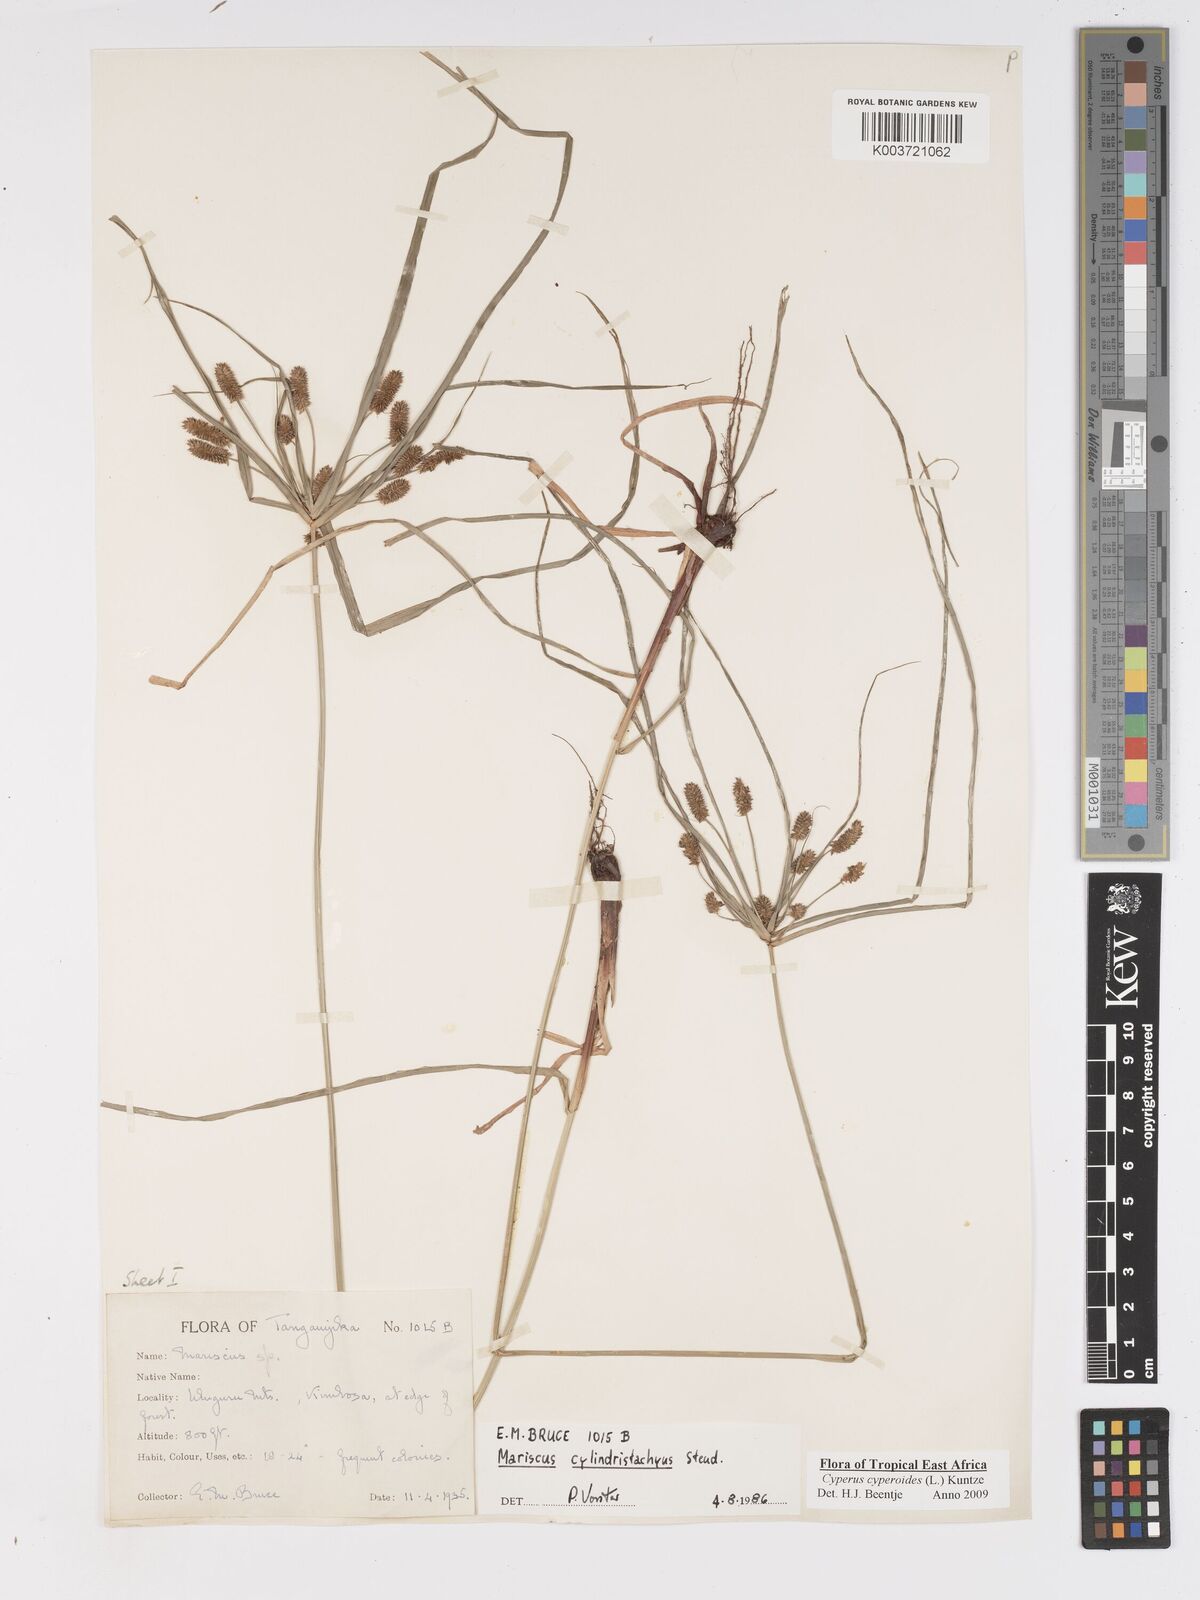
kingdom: Plantae
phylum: Tracheophyta
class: Liliopsida
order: Poales
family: Cyperaceae
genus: Cyperus
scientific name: Cyperus cyperoides
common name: Pacific island flat sedge
